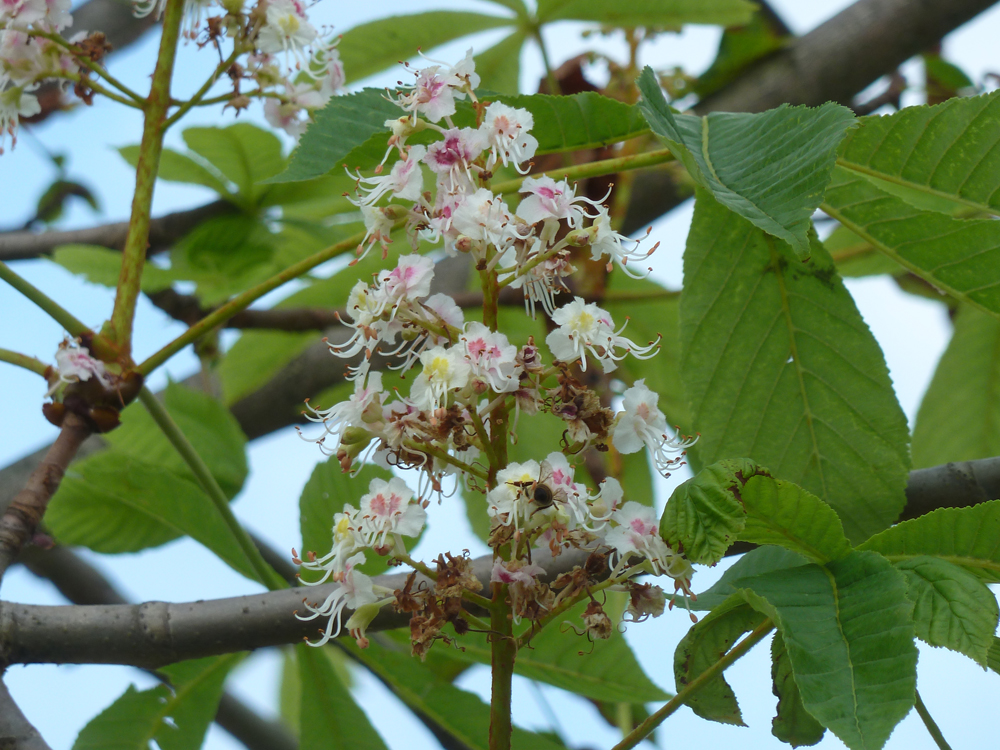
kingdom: Plantae
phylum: Tracheophyta
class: Magnoliopsida
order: Sapindales
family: Sapindaceae
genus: Aesculus
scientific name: Aesculus hippocastanum
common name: Horse-chestnut
